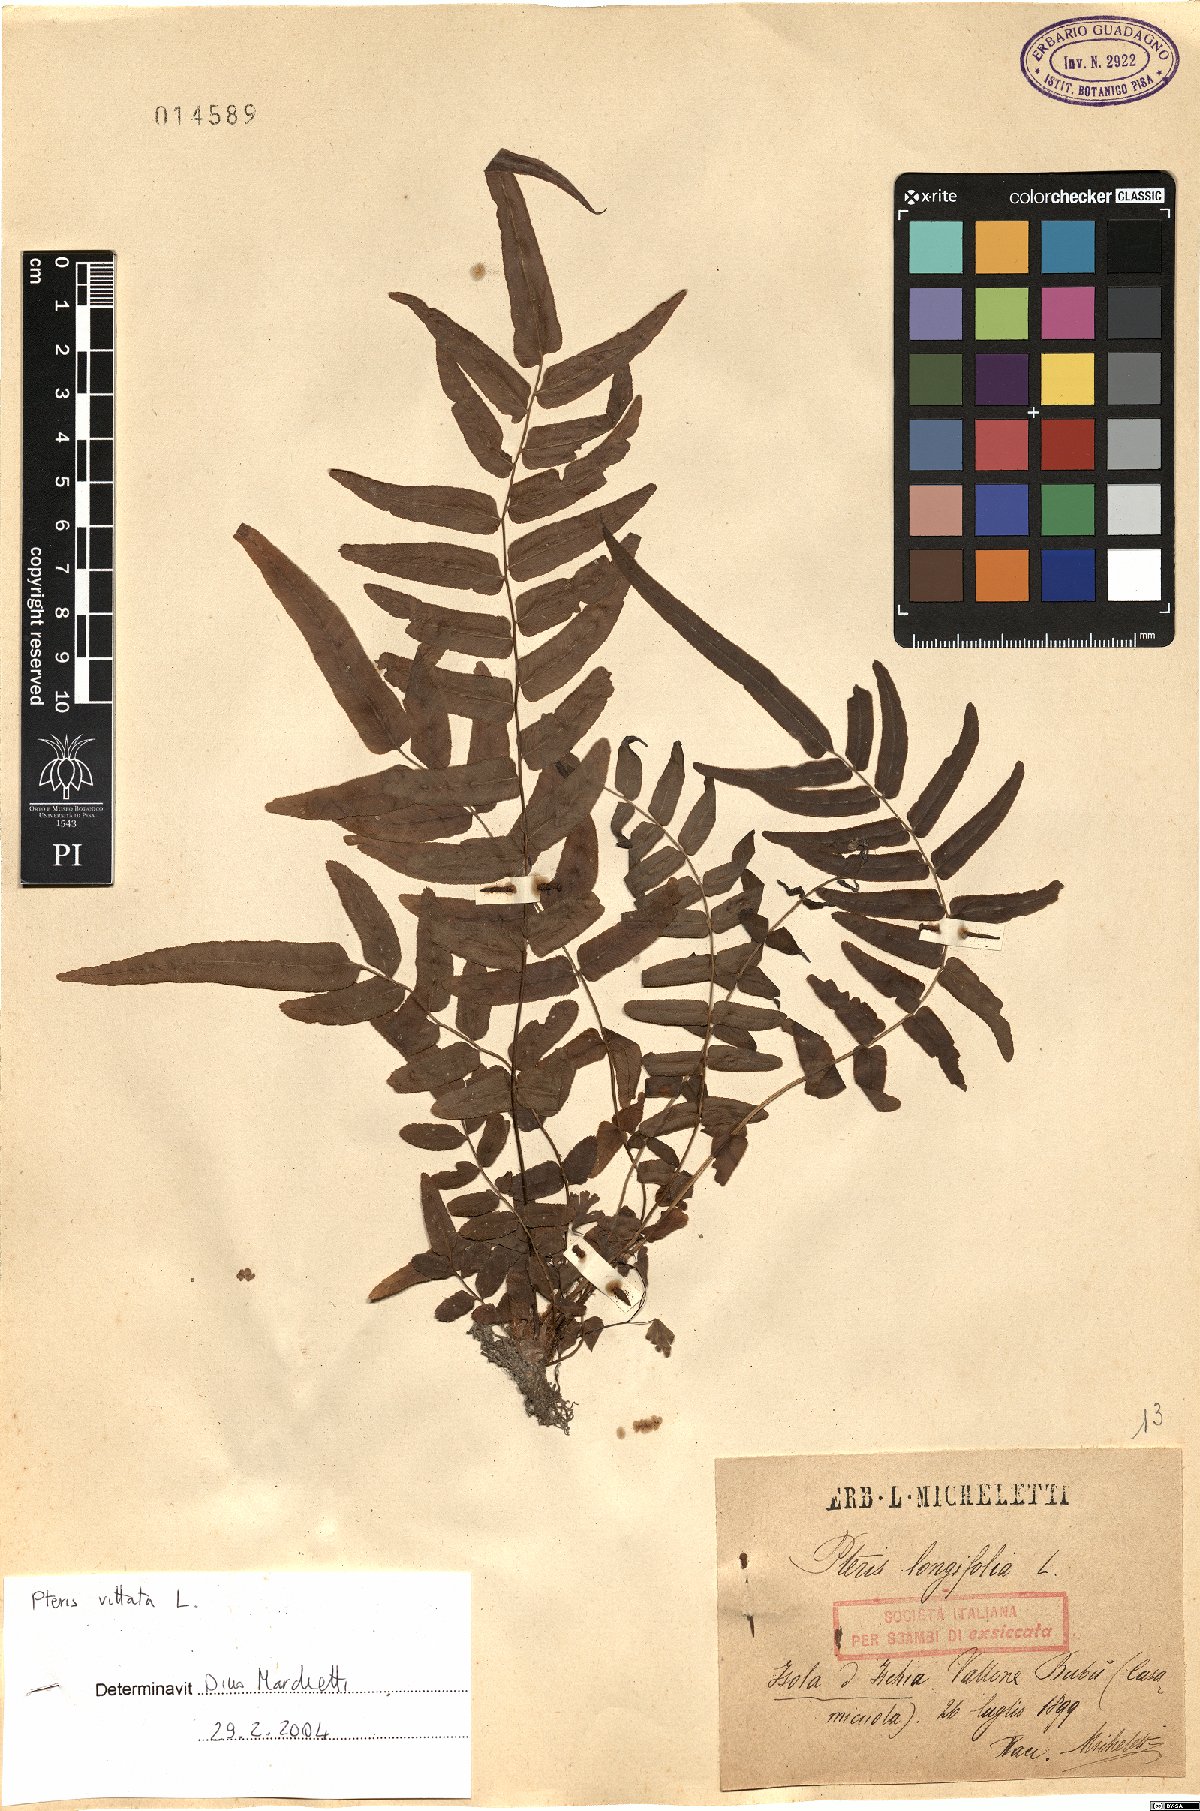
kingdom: Plantae
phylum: Tracheophyta
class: Polypodiopsida
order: Polypodiales
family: Pteridaceae
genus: Pteris
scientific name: Pteris vittata
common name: Ladder brake
